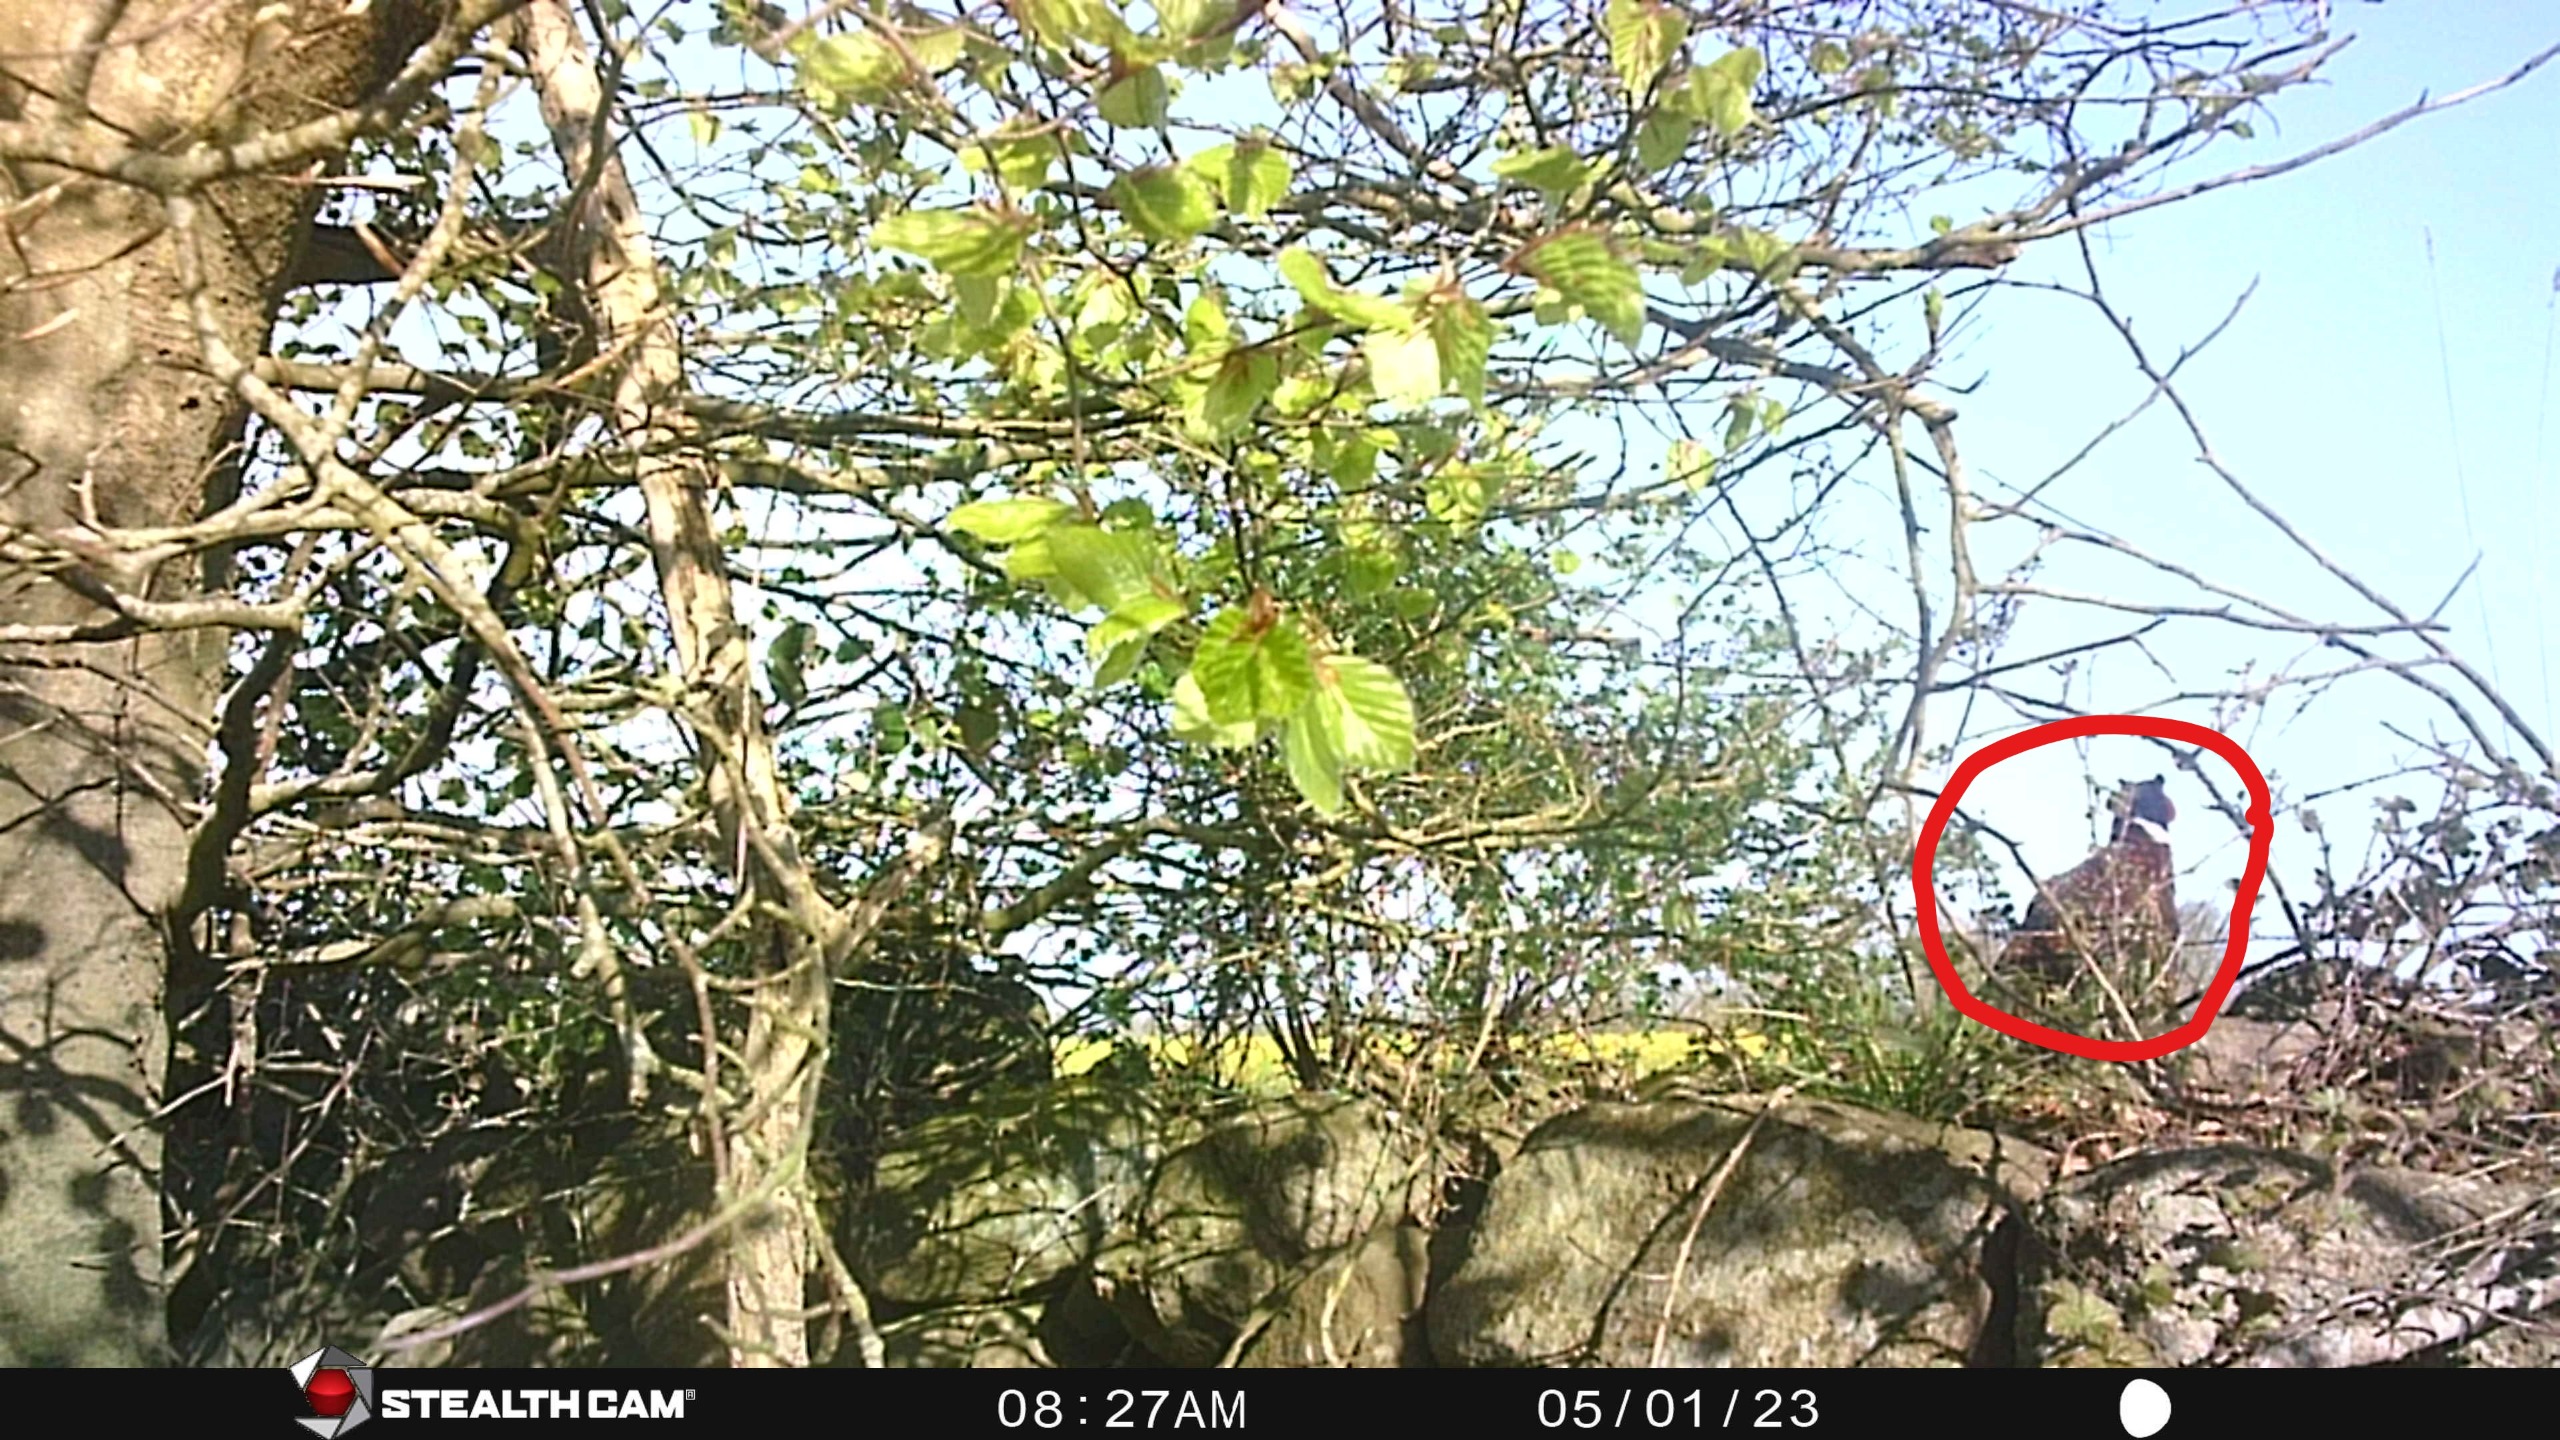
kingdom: Animalia
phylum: Chordata
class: Aves
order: Galliformes
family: Phasianidae
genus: Phasianus
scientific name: Phasianus colchicus
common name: Fasan
